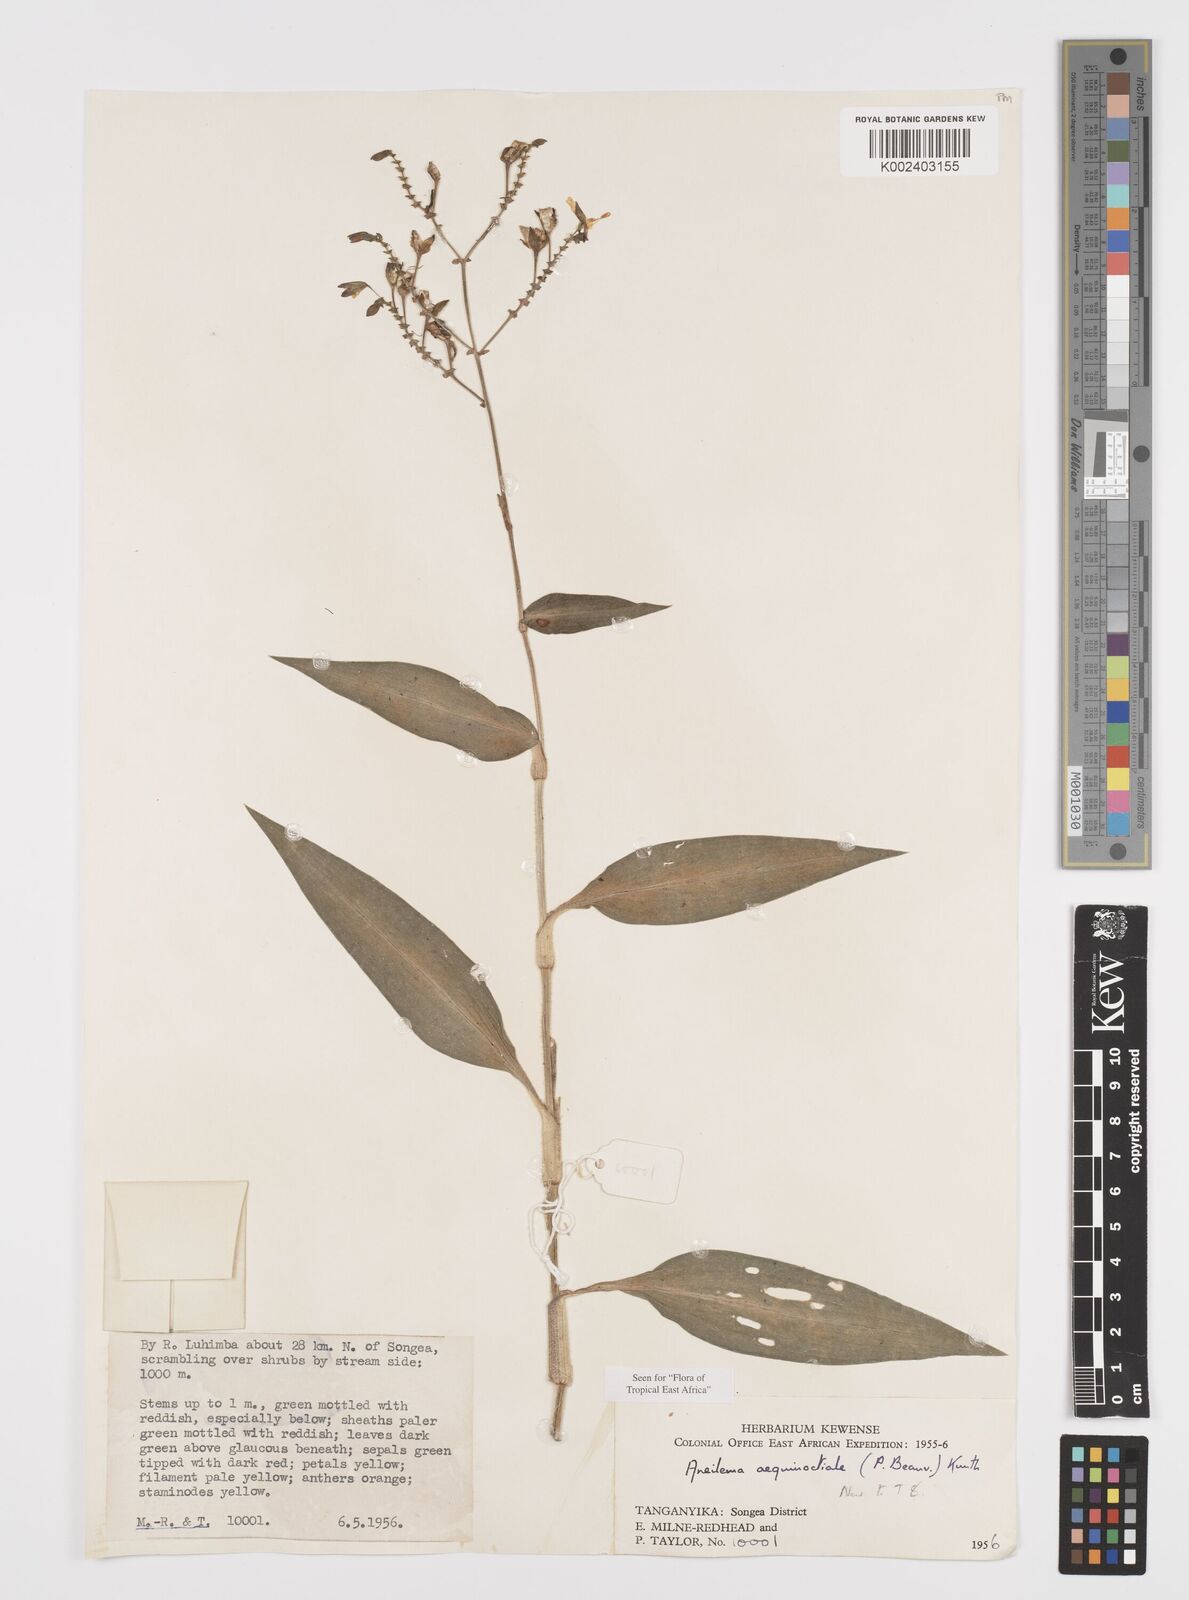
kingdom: Plantae
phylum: Tracheophyta
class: Liliopsida
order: Commelinales
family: Commelinaceae
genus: Aneilema
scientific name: Aneilema aequinoctiale
